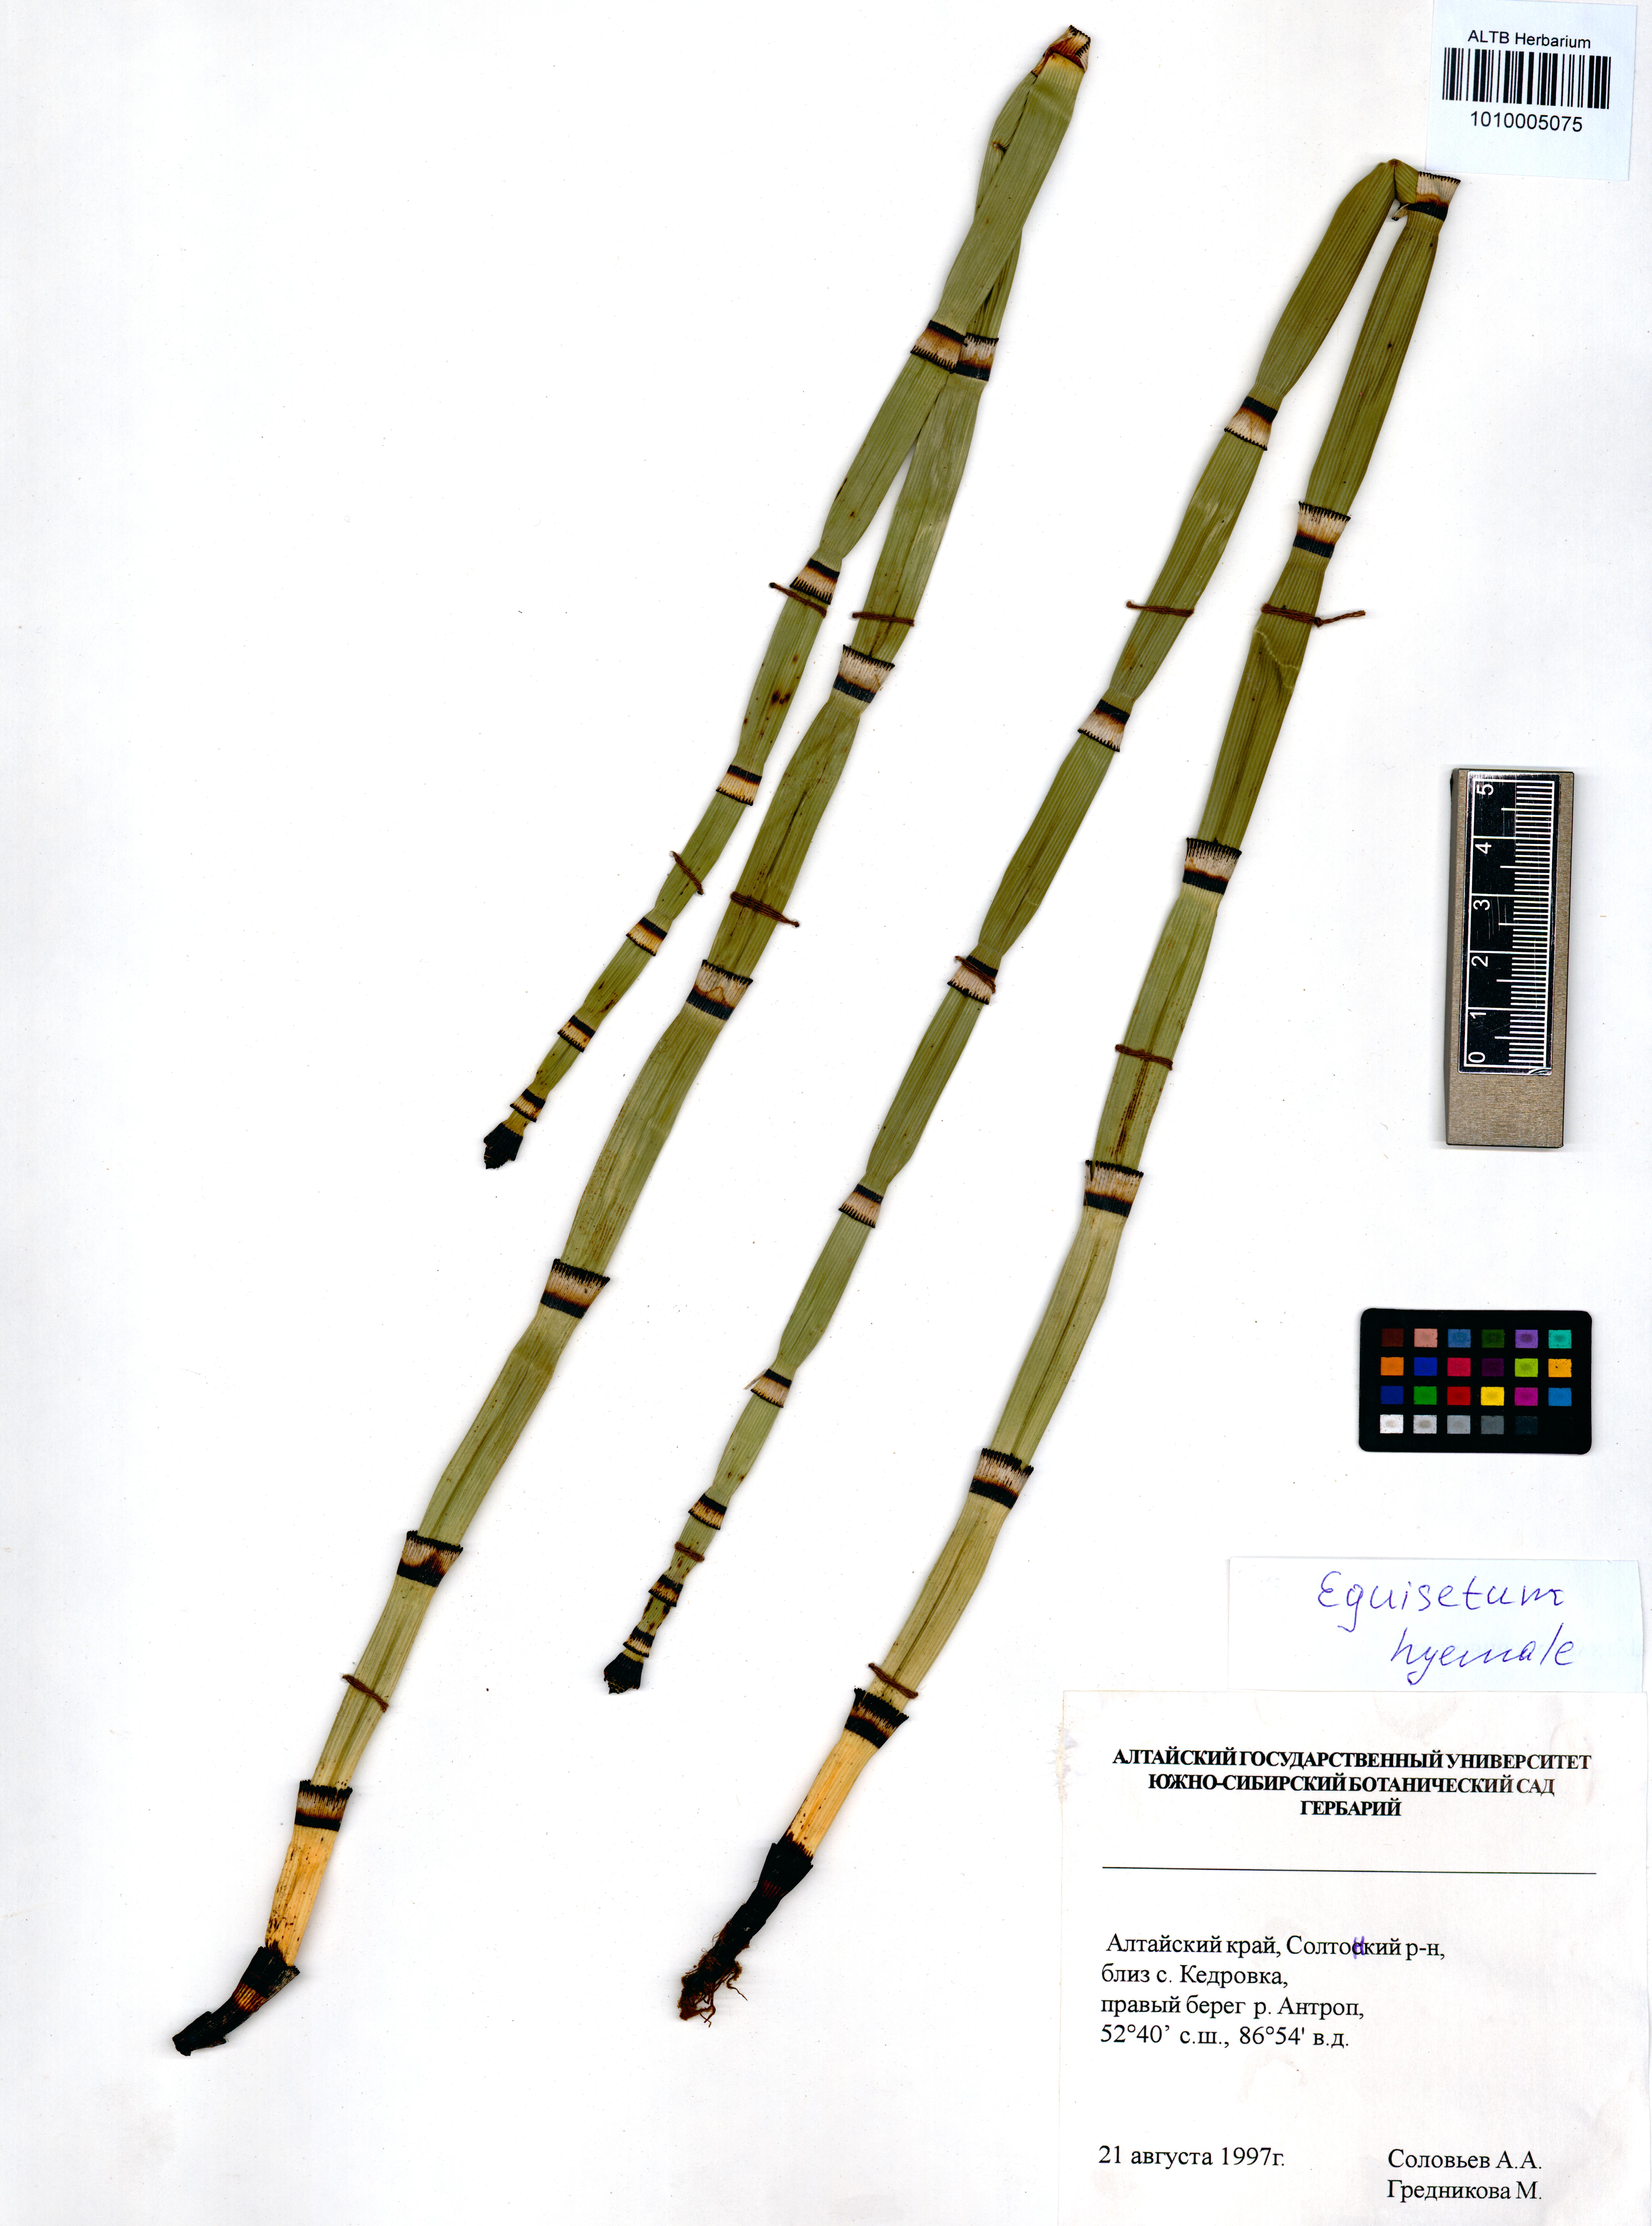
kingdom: Plantae
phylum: Tracheophyta
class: Polypodiopsida
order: Equisetales
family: Equisetaceae
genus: Equisetum
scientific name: Equisetum hyemale
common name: Rough horsetail
